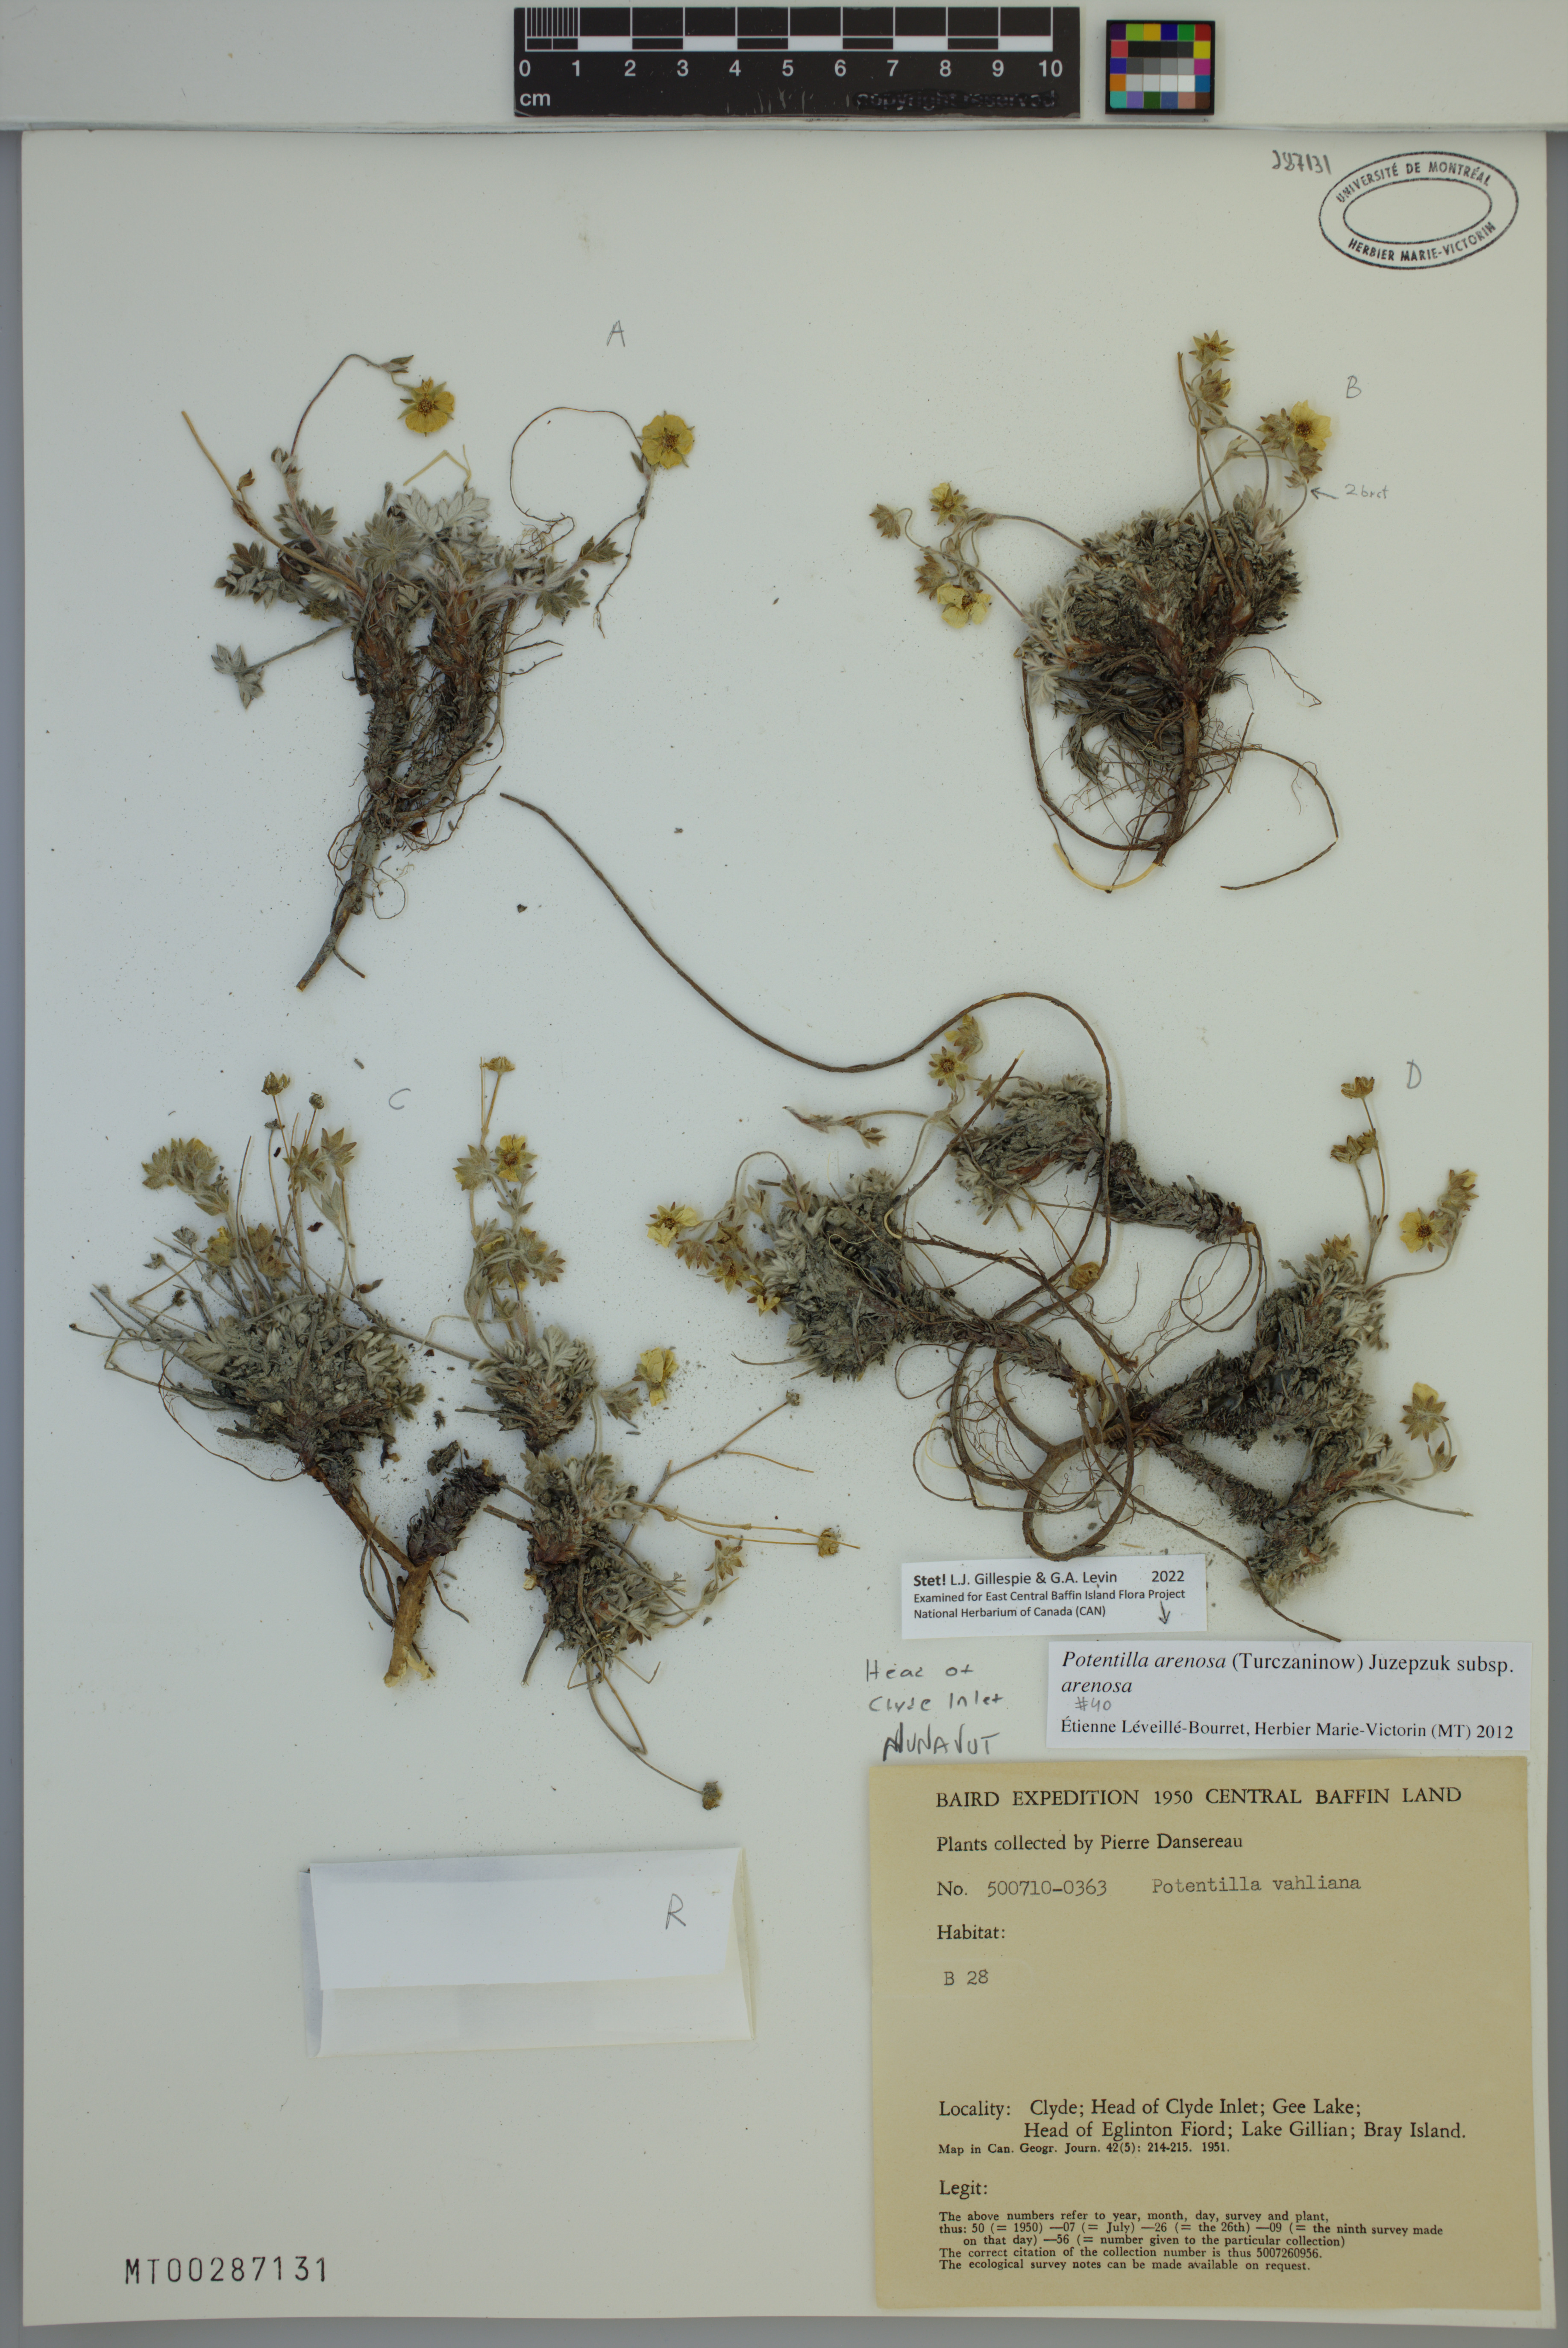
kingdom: Plantae
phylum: Tracheophyta
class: Magnoliopsida
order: Rosales
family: Rosaceae
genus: Potentilla
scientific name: Potentilla arenosa
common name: Bluff cinquefoil
